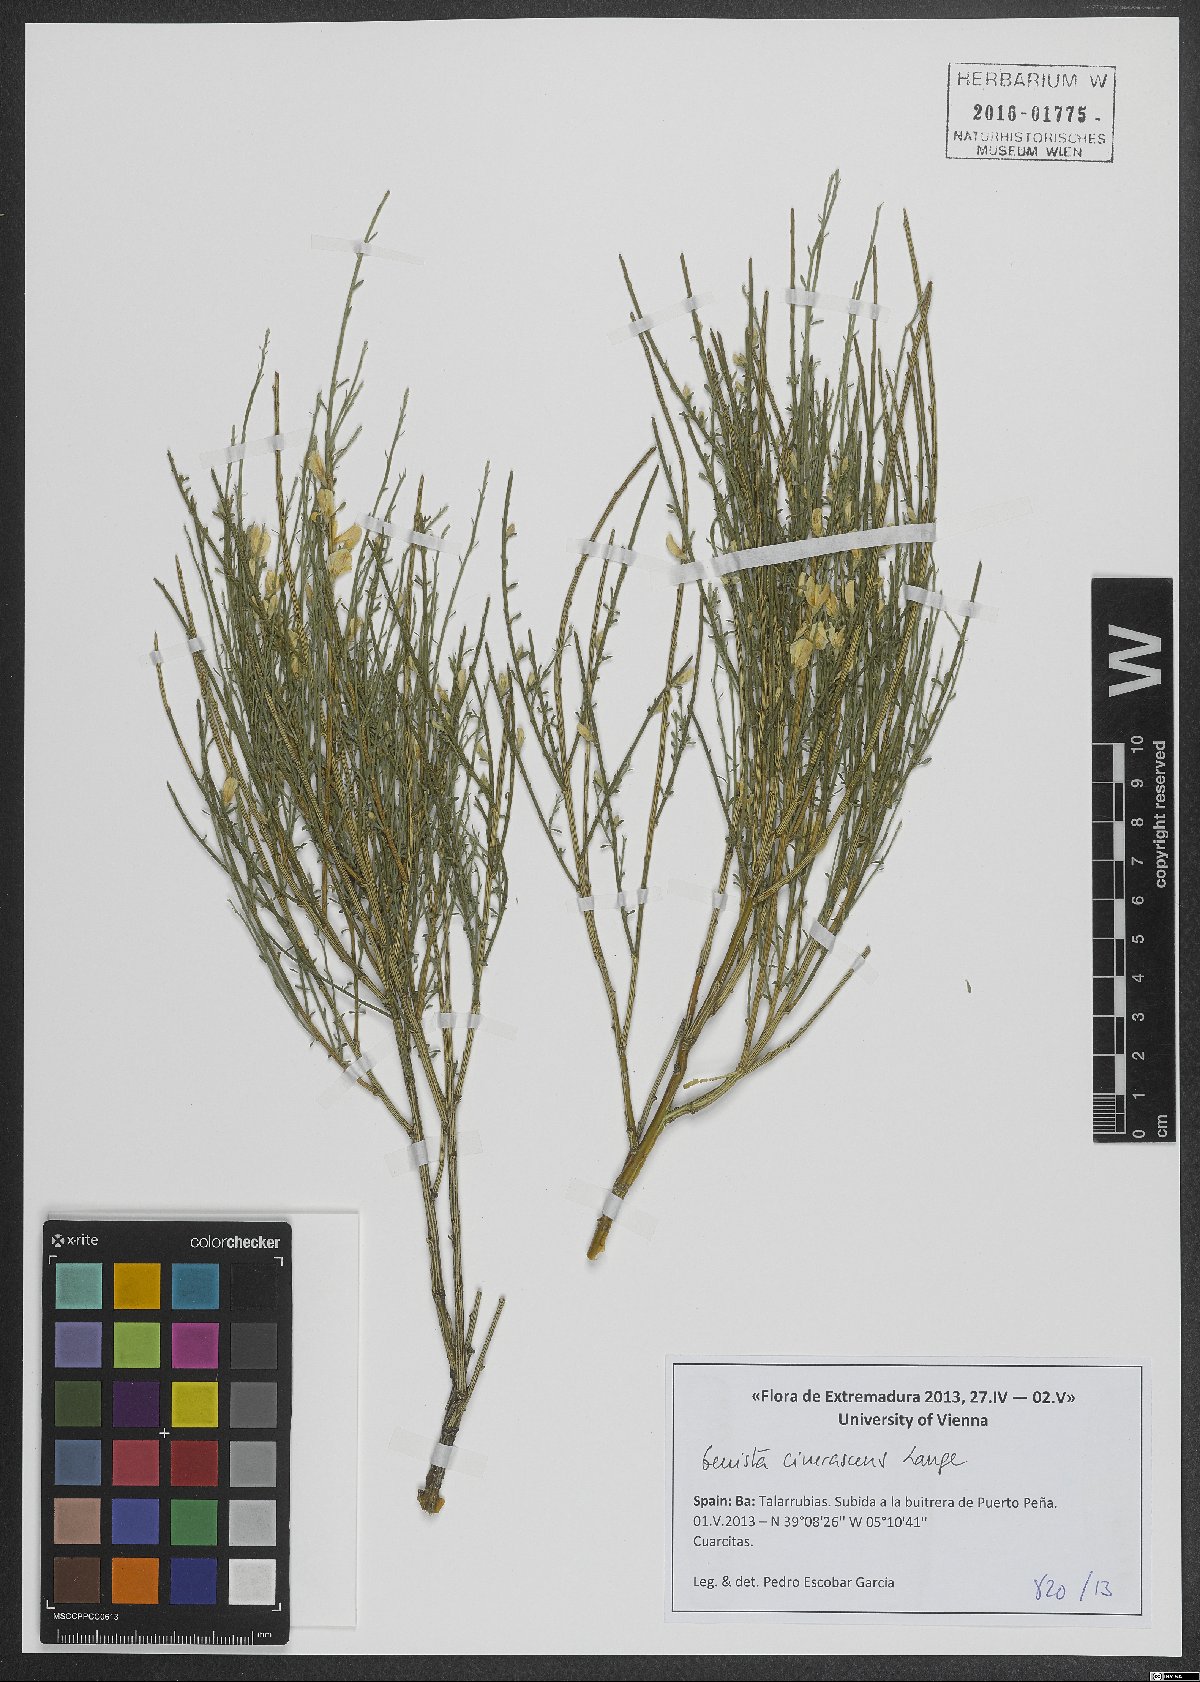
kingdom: Plantae
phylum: Tracheophyta
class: Magnoliopsida
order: Fabales
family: Fabaceae
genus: Genista
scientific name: Genista cinerascens
